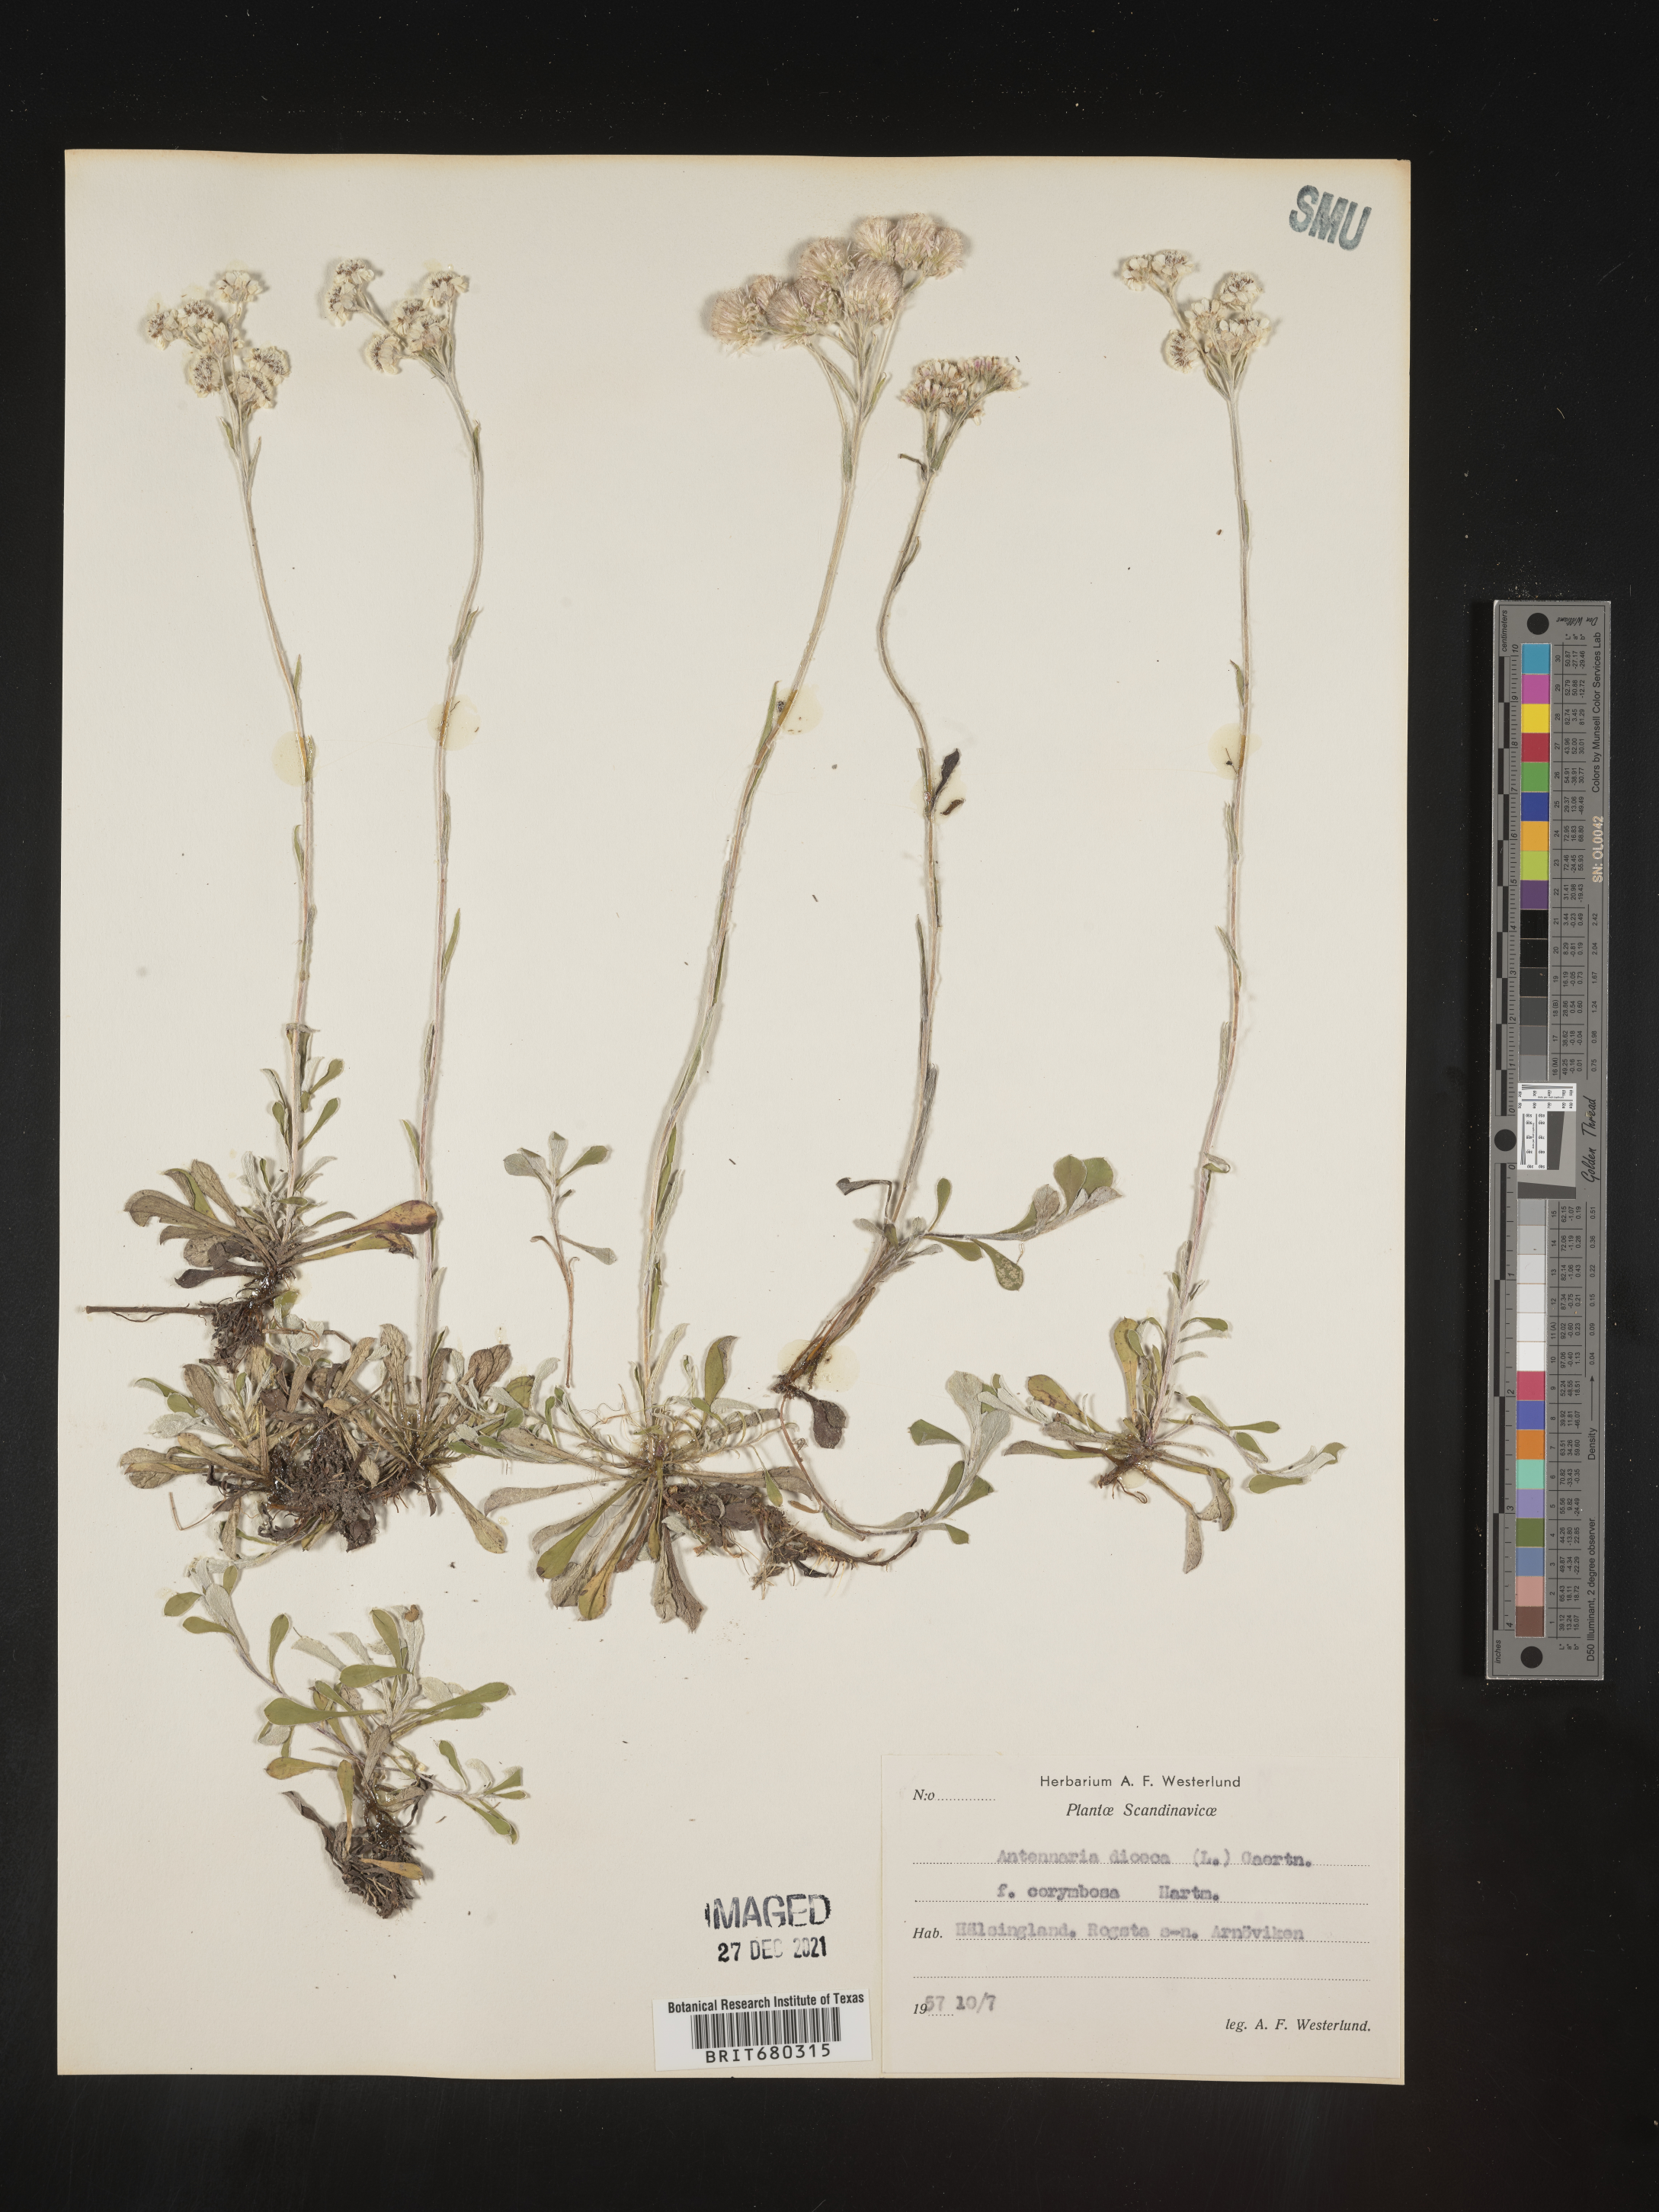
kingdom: Plantae
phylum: Tracheophyta
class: Magnoliopsida
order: Asterales
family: Asteraceae
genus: Antennaria
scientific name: Antennaria dioica
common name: Mountain everlasting
